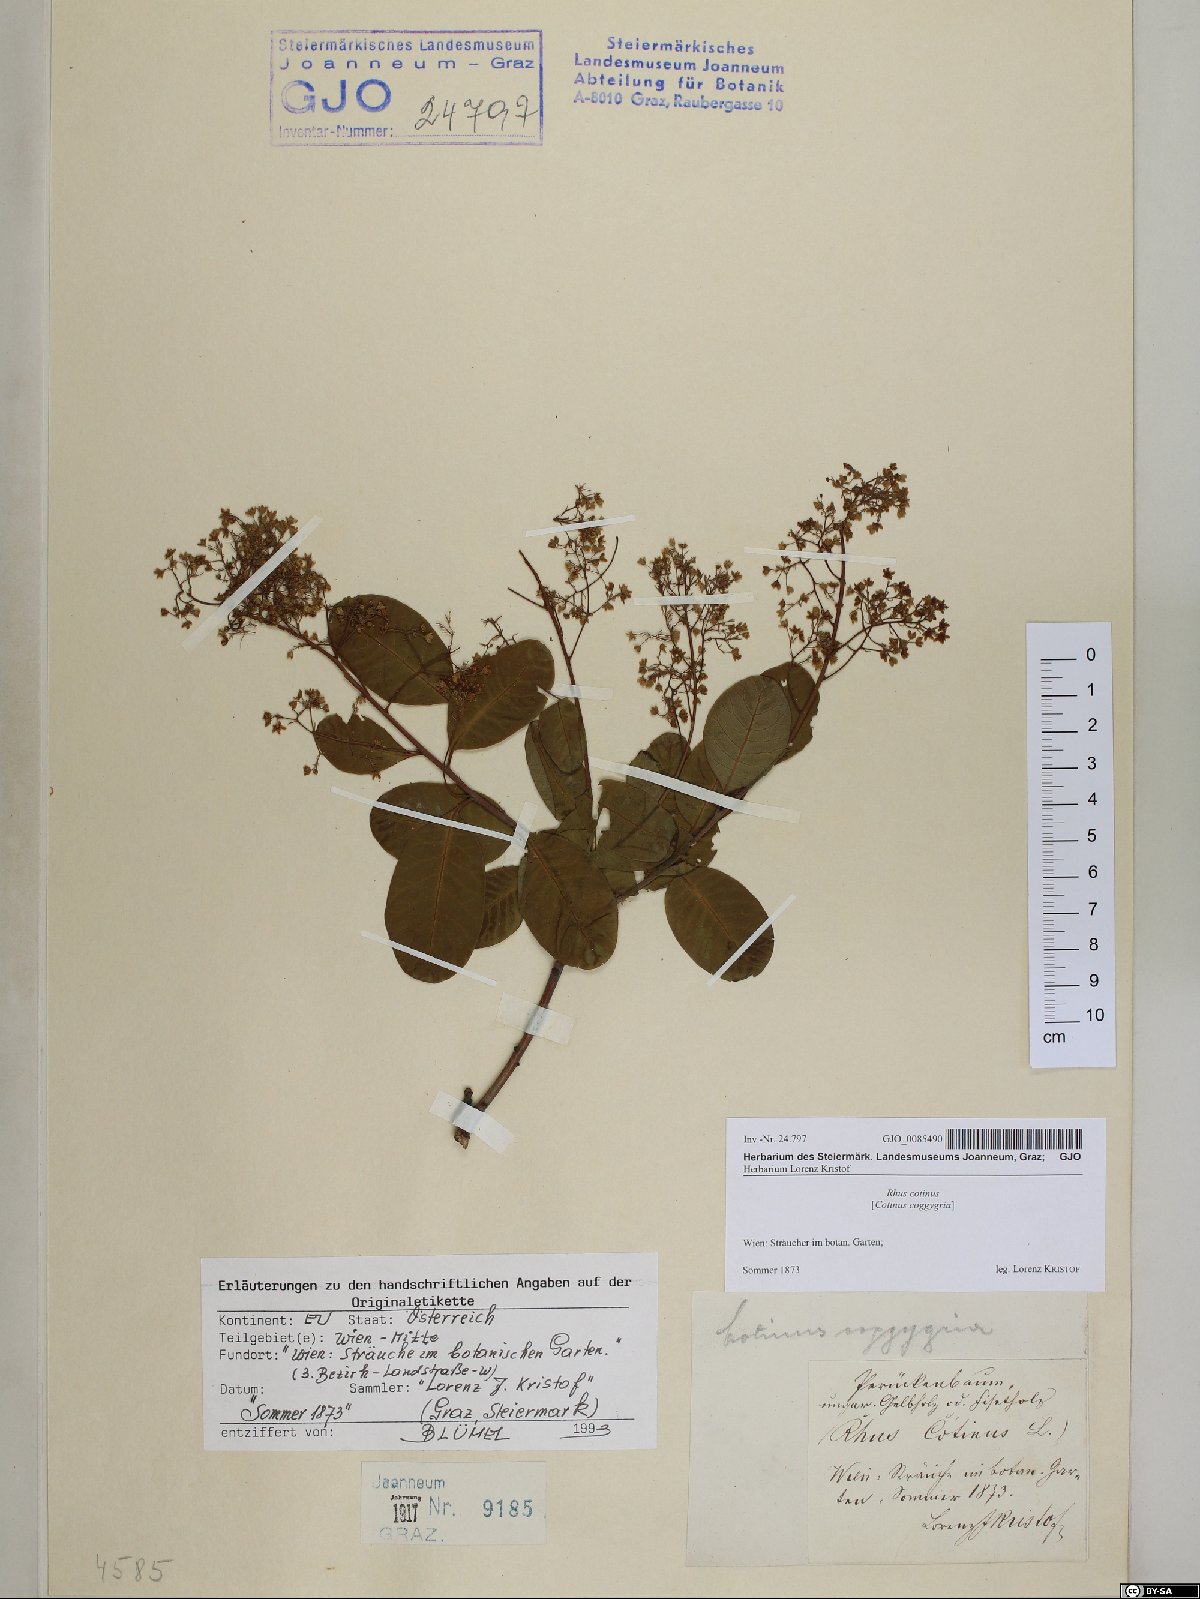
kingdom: Plantae
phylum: Tracheophyta
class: Magnoliopsida
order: Sapindales
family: Anacardiaceae
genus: Cotinus
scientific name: Cotinus coggygria
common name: Smoke-tree
